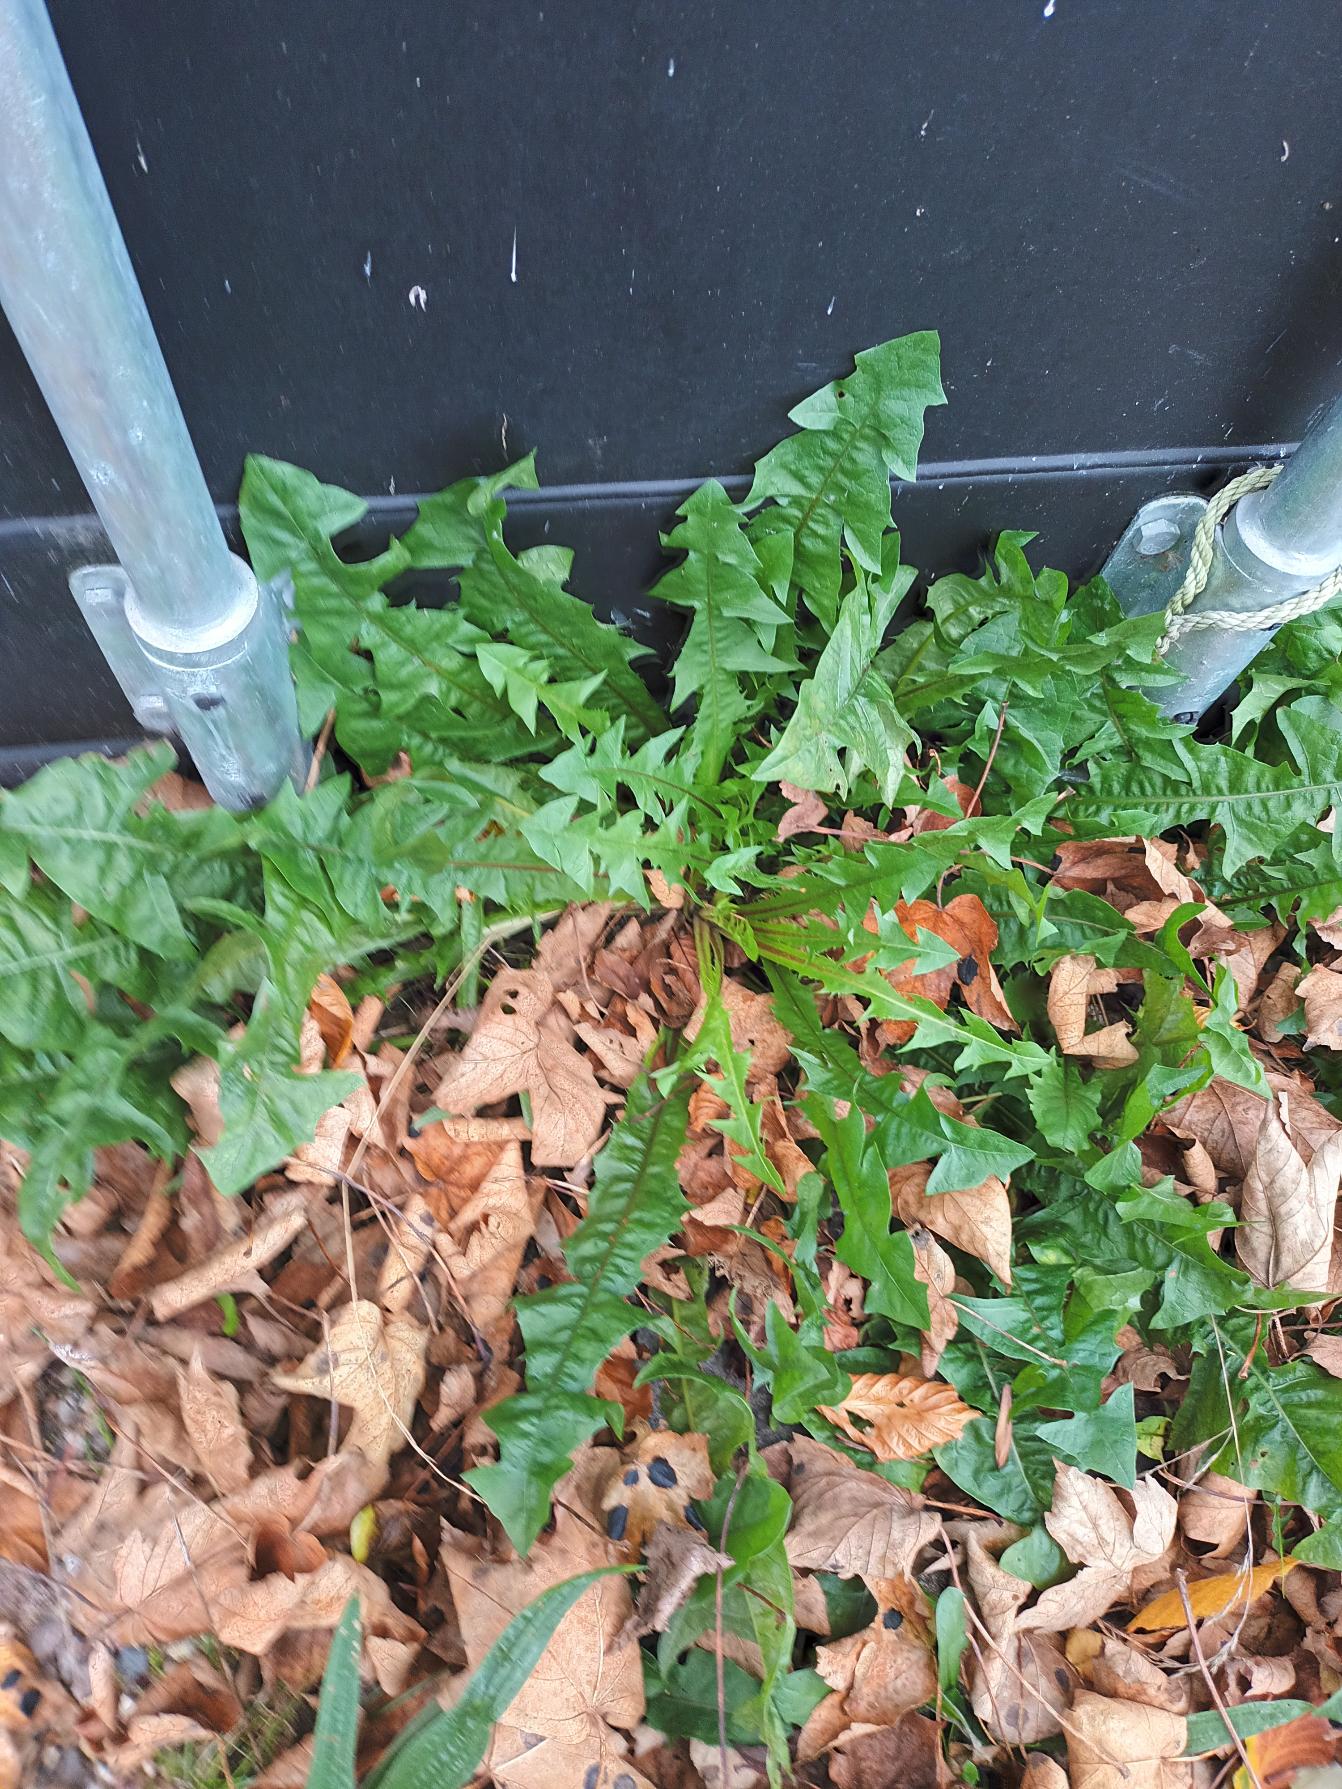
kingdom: Plantae
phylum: Tracheophyta
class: Magnoliopsida
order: Asterales
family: Asteraceae
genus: Taraxacum
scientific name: Taraxacum
